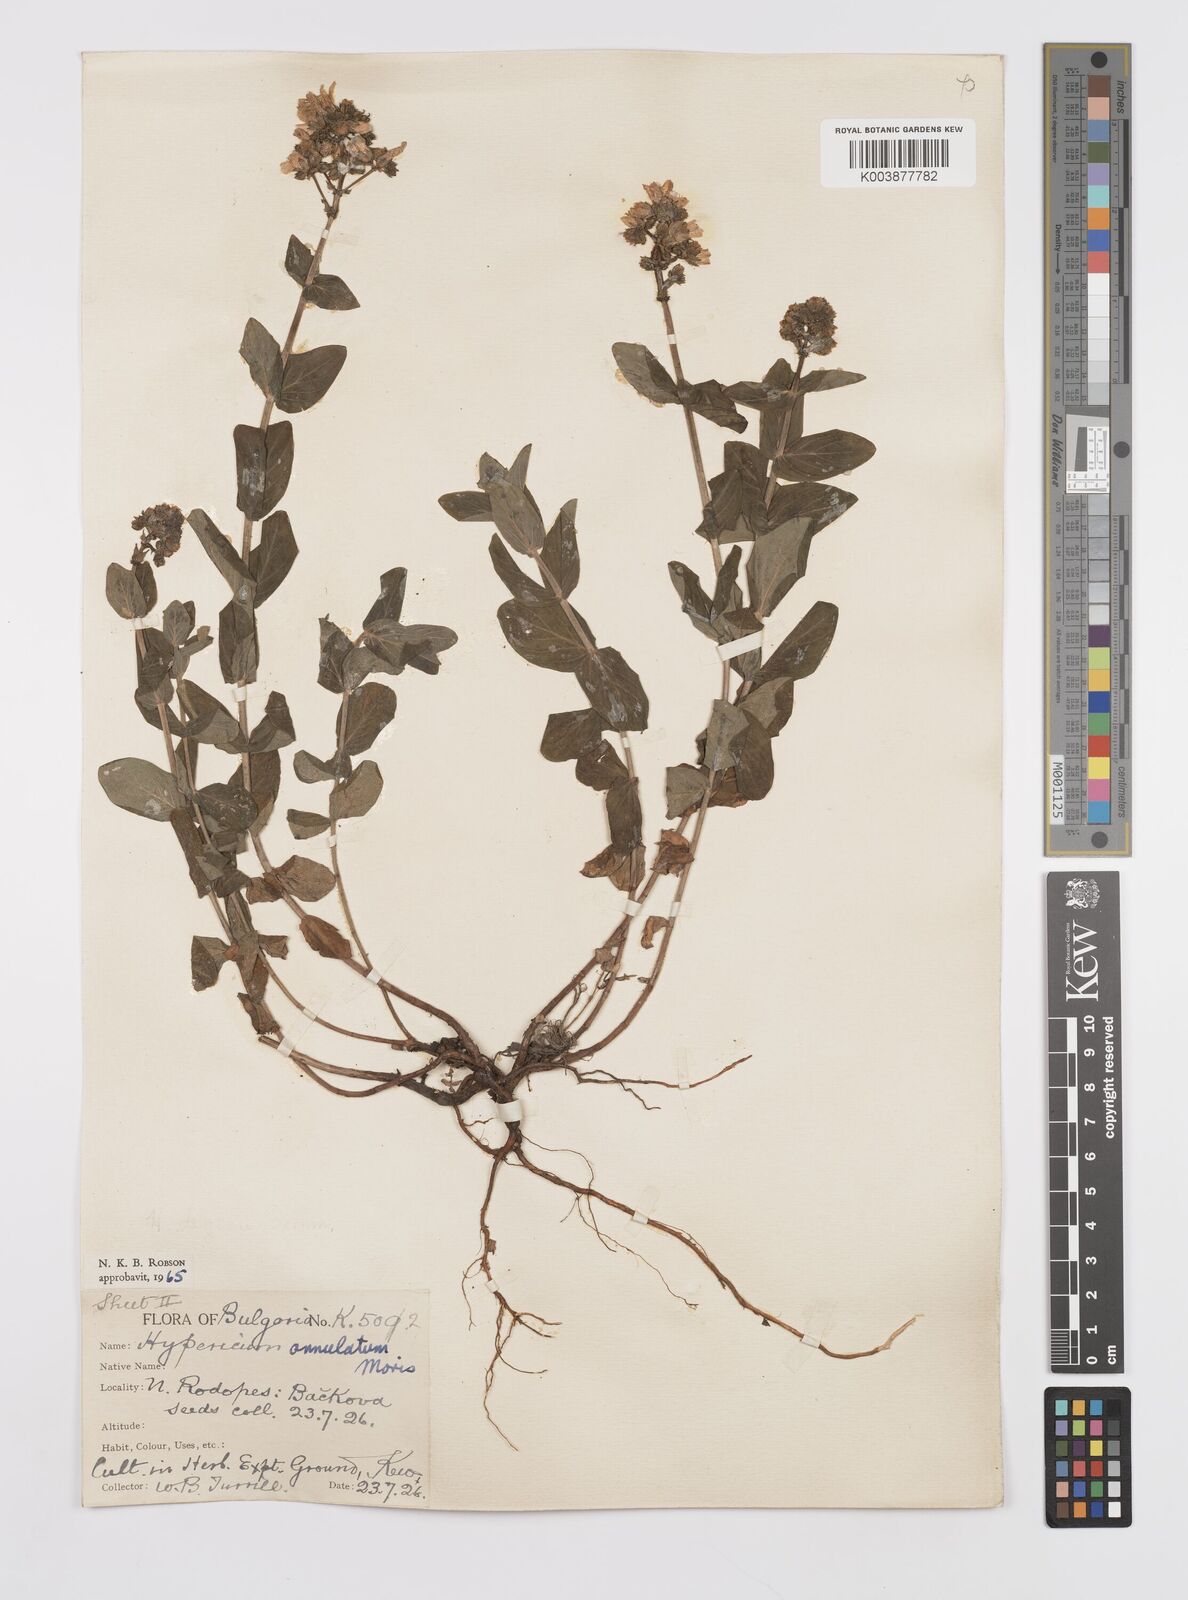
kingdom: Plantae
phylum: Tracheophyta
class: Magnoliopsida
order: Malpighiales
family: Hypericaceae
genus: Hypericum
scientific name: Hypericum annulatum
